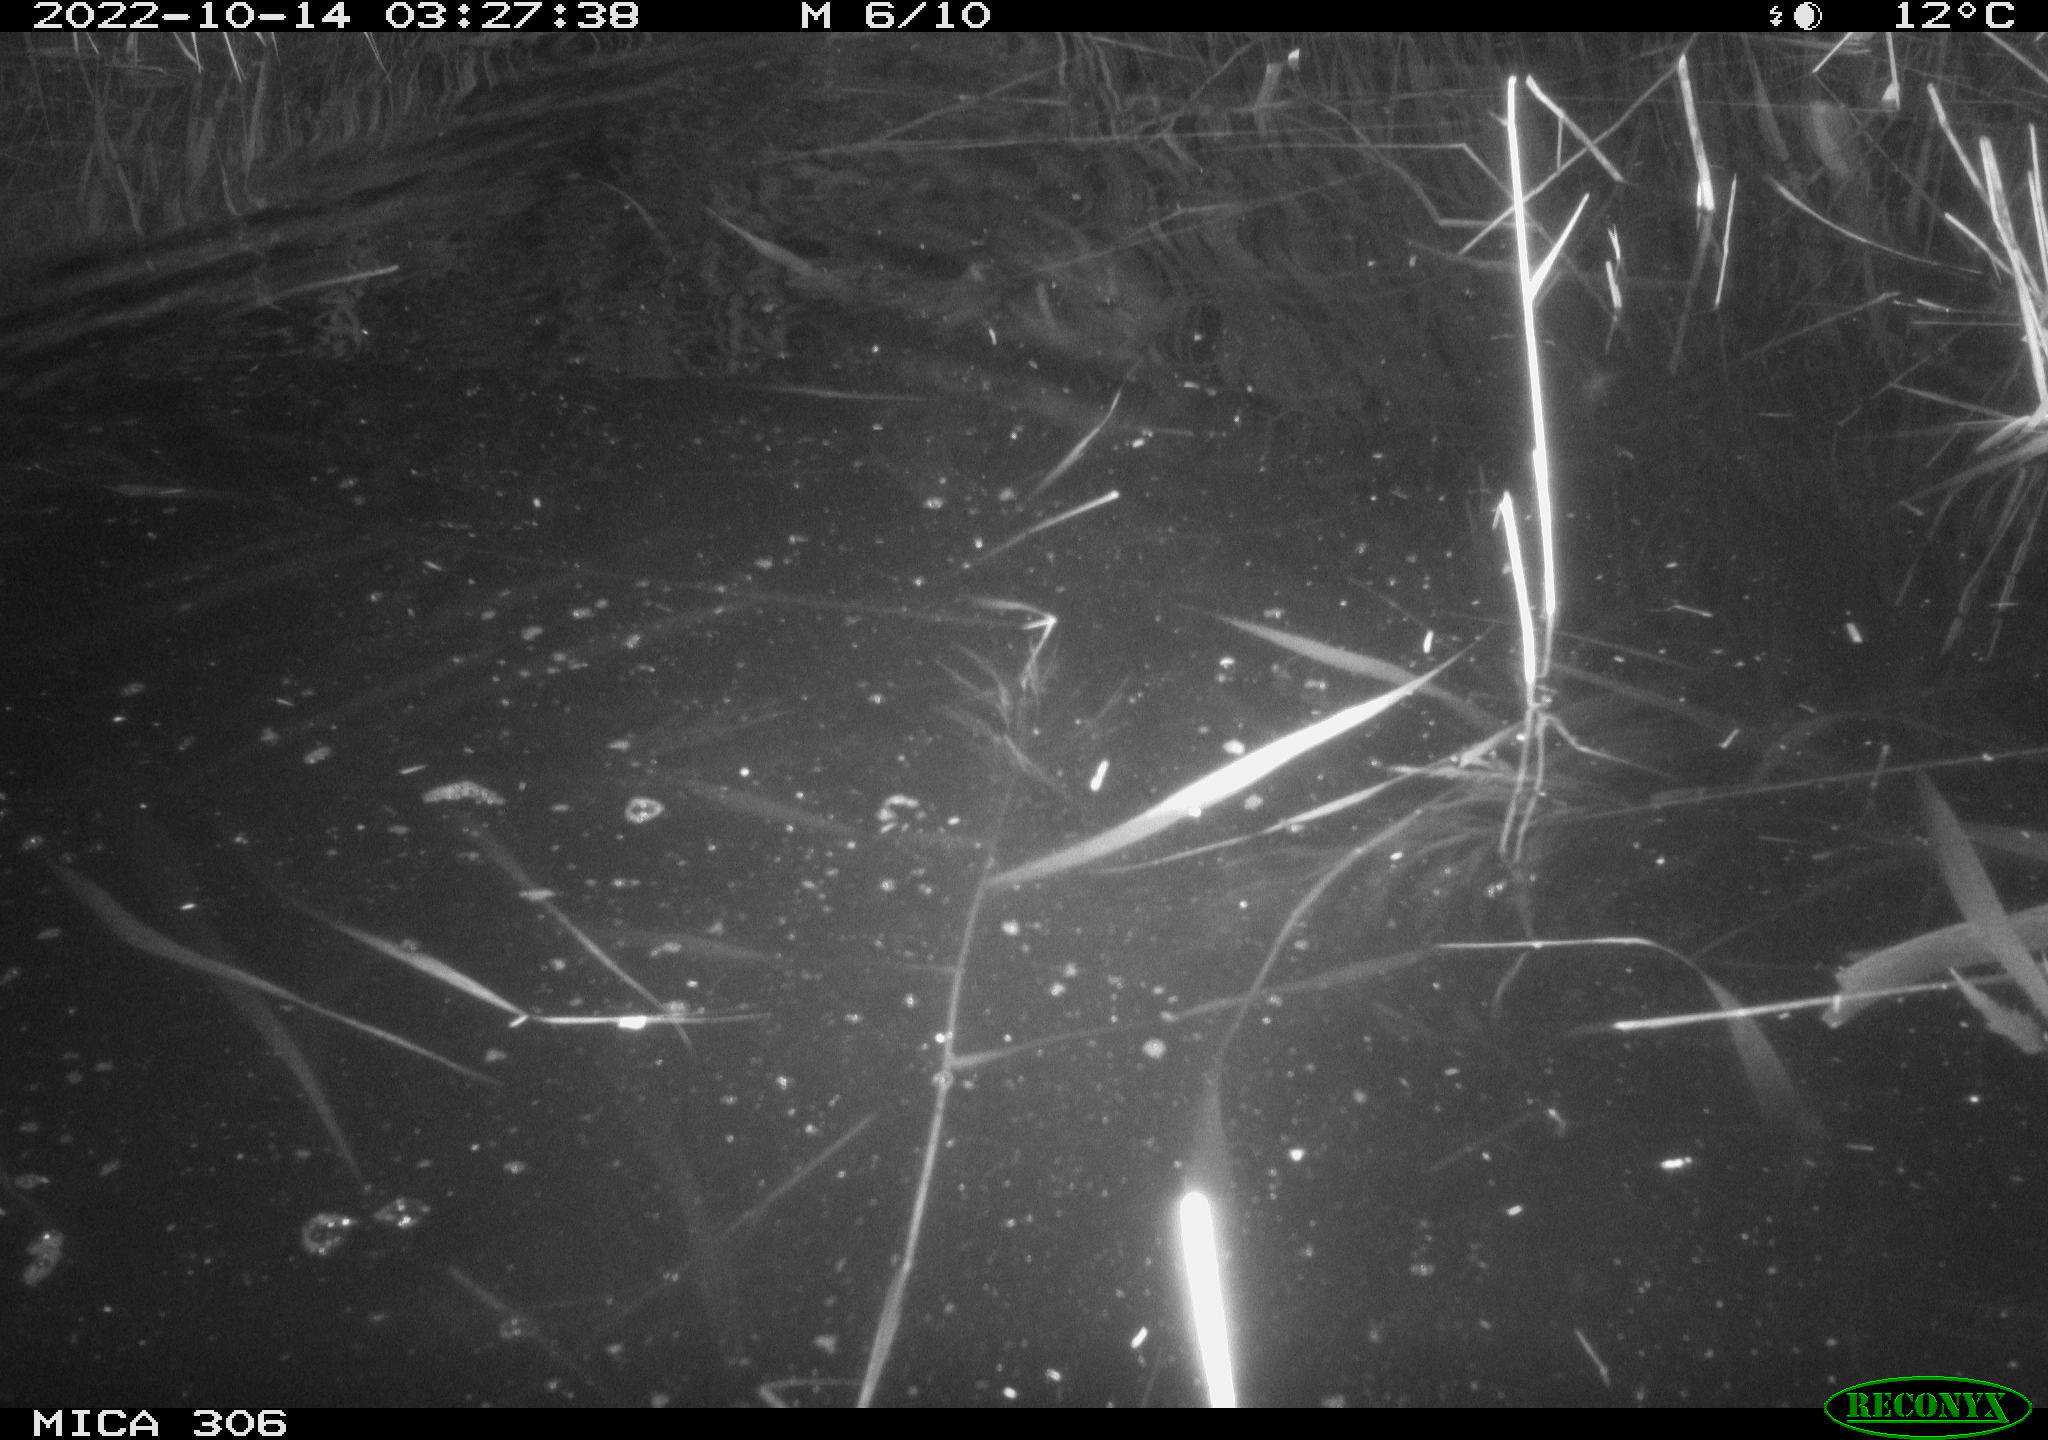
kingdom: Animalia
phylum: Chordata
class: Mammalia
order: Rodentia
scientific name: Rodentia
